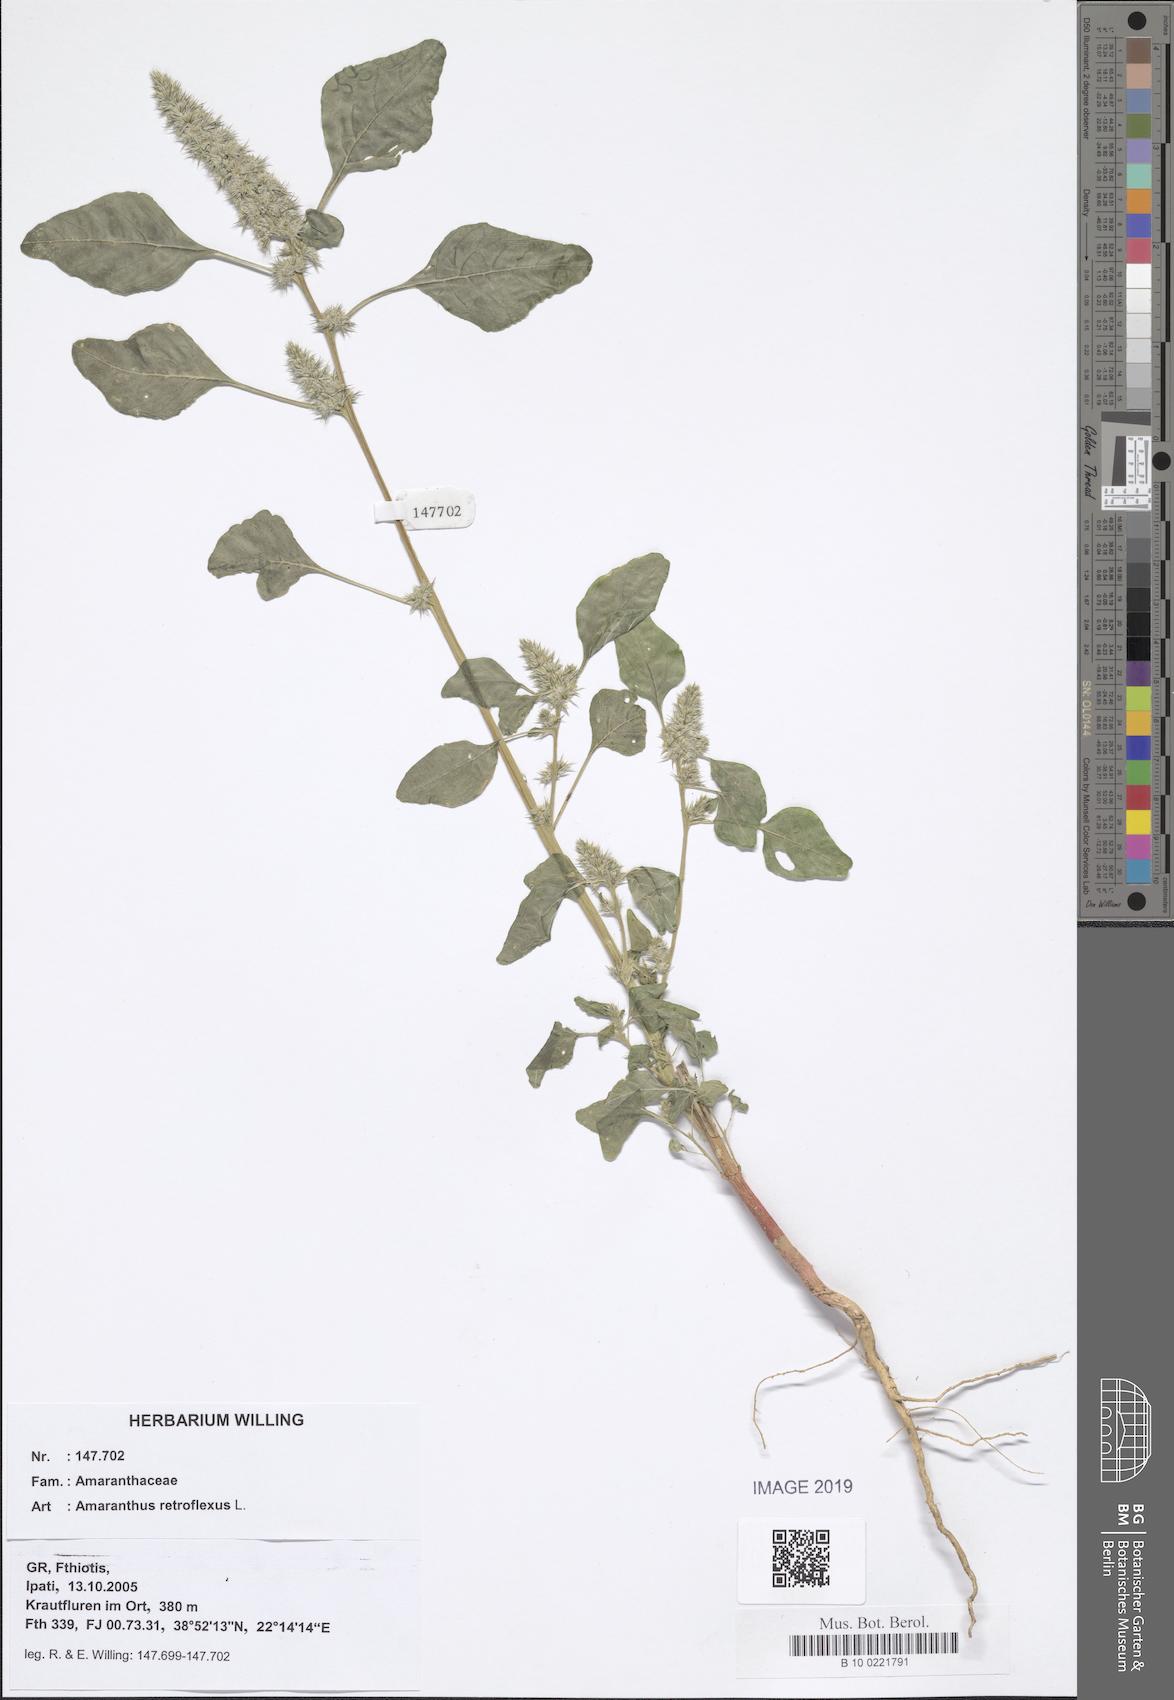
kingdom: Plantae
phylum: Tracheophyta
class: Magnoliopsida
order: Caryophyllales
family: Amaranthaceae
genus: Amaranthus
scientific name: Amaranthus retroflexus
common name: Redroot amaranth
